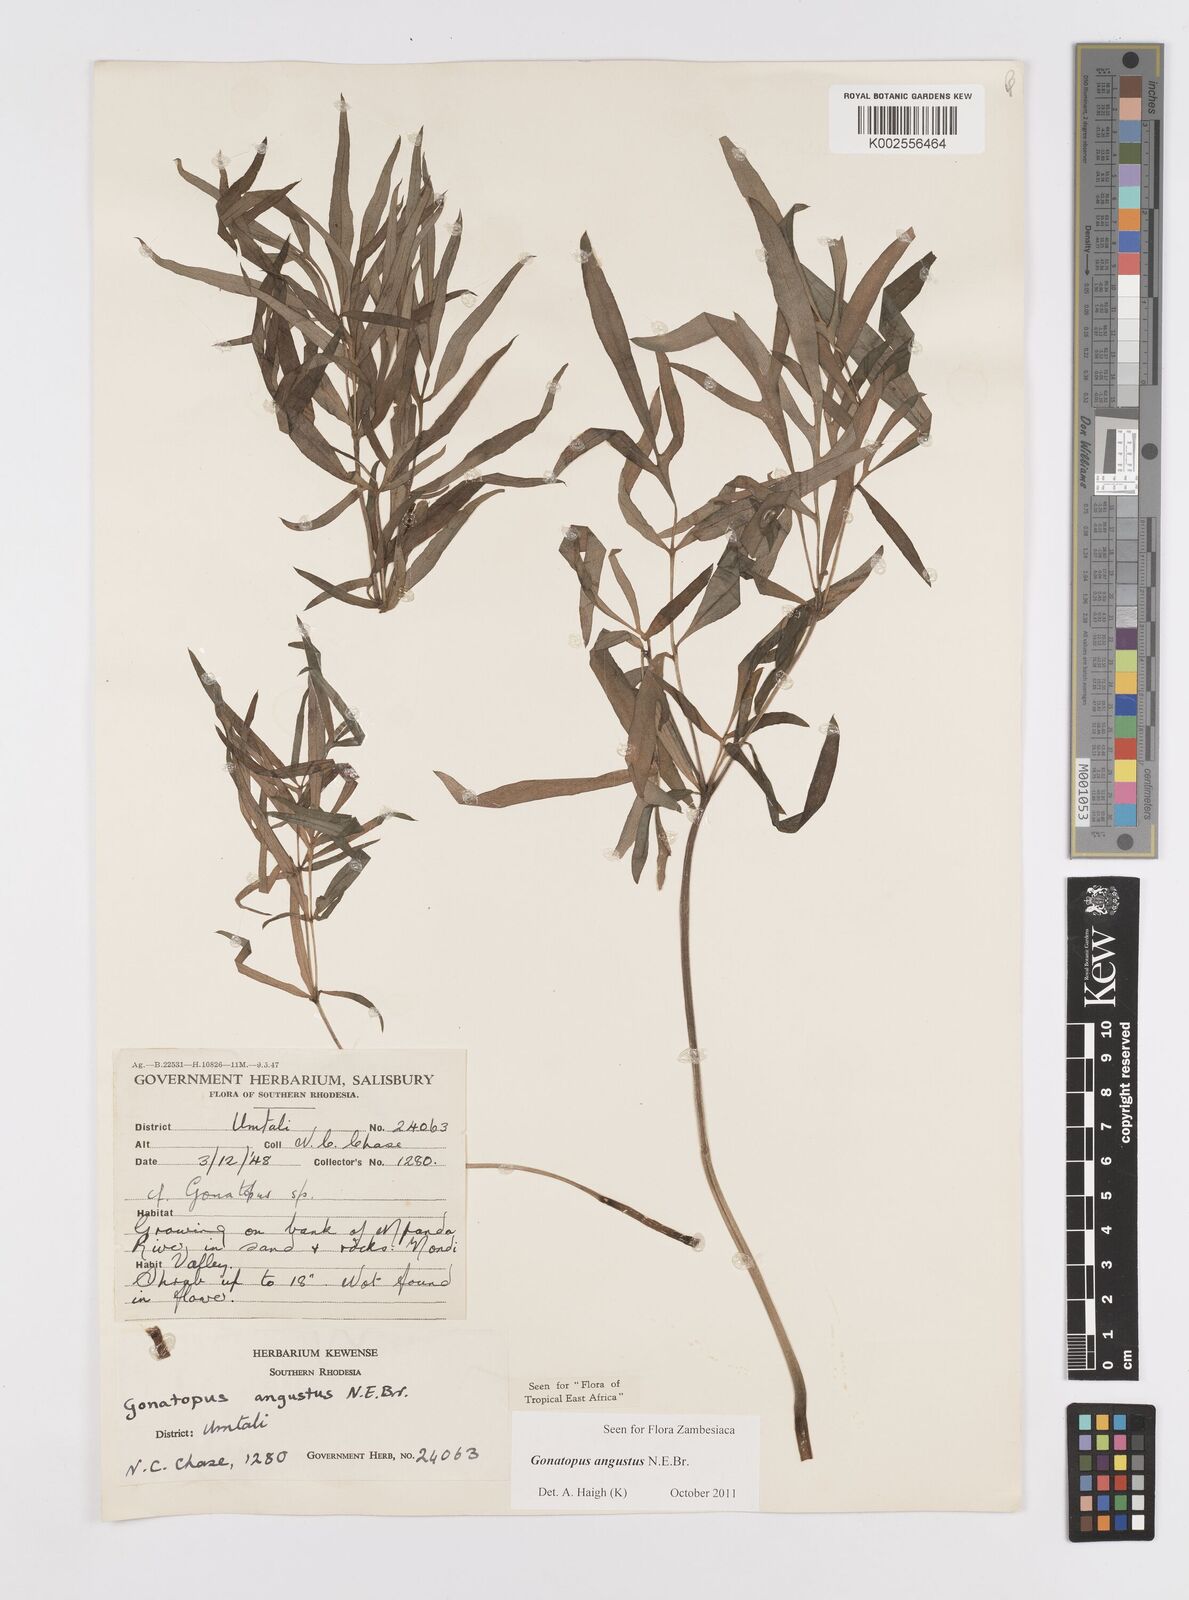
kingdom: Plantae
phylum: Tracheophyta
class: Liliopsida
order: Alismatales
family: Araceae
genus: Gonatopus
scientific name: Gonatopus angustus
